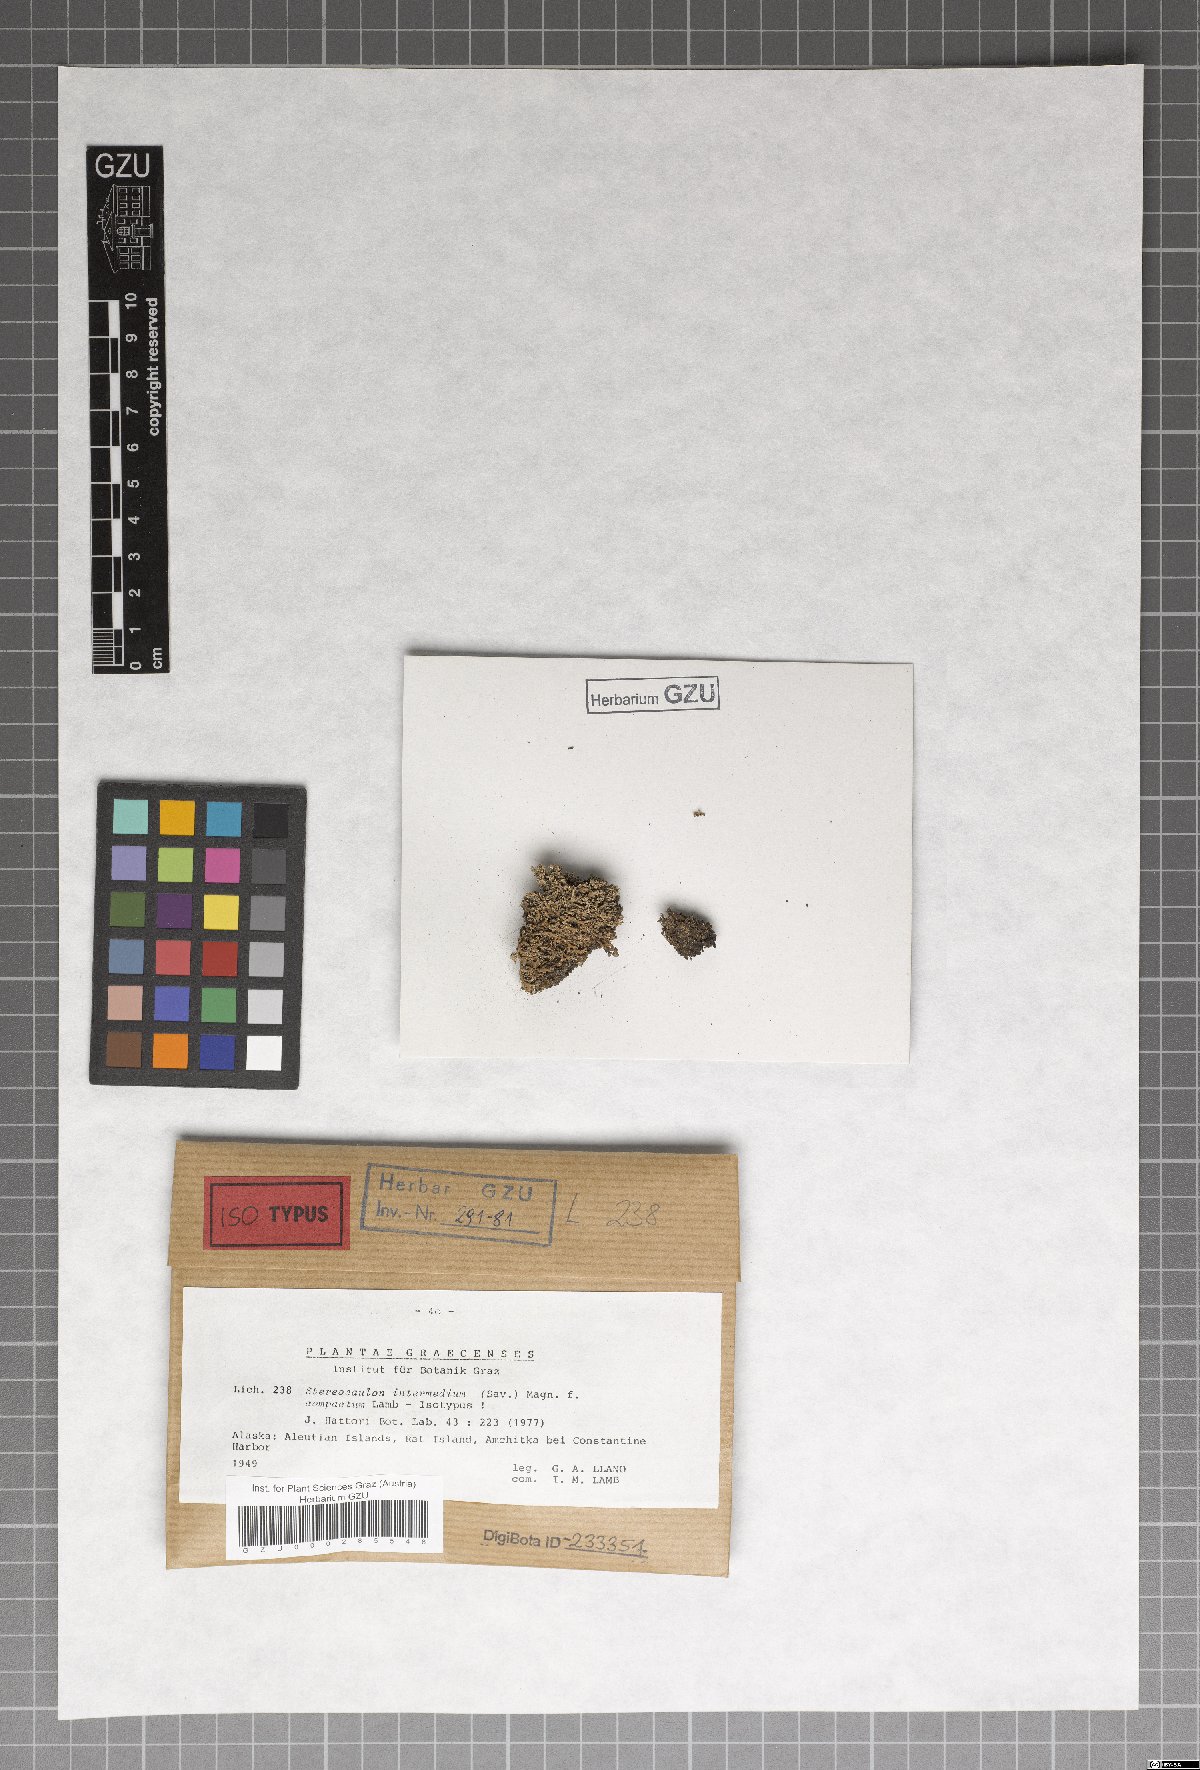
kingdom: Fungi
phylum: Ascomycota
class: Lecanoromycetes
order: Lecanorales
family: Stereocaulaceae
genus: Stereocaulon
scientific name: Stereocaulon compactum
